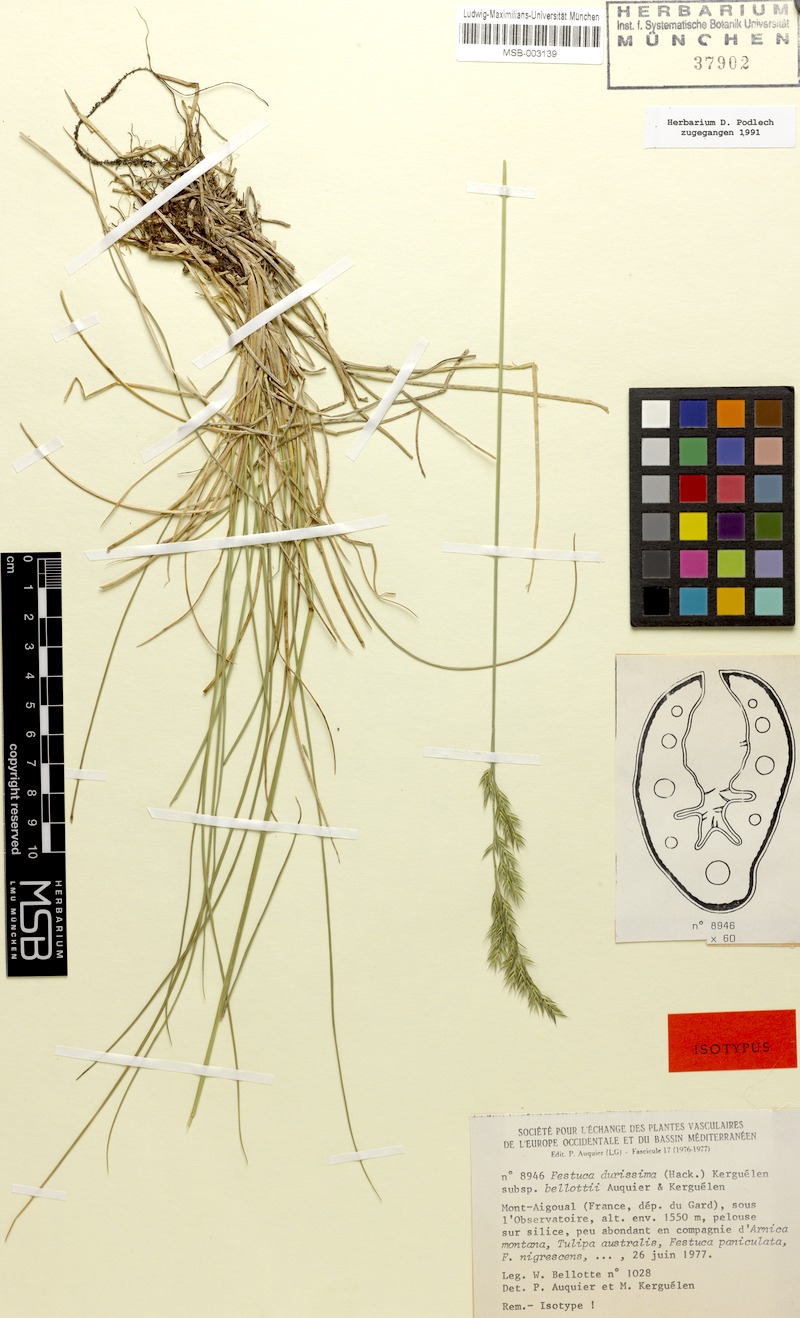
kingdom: Plantae
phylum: Tracheophyta
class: Liliopsida
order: Poales
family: Poaceae
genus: Lolium
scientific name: Lolium font-queri
